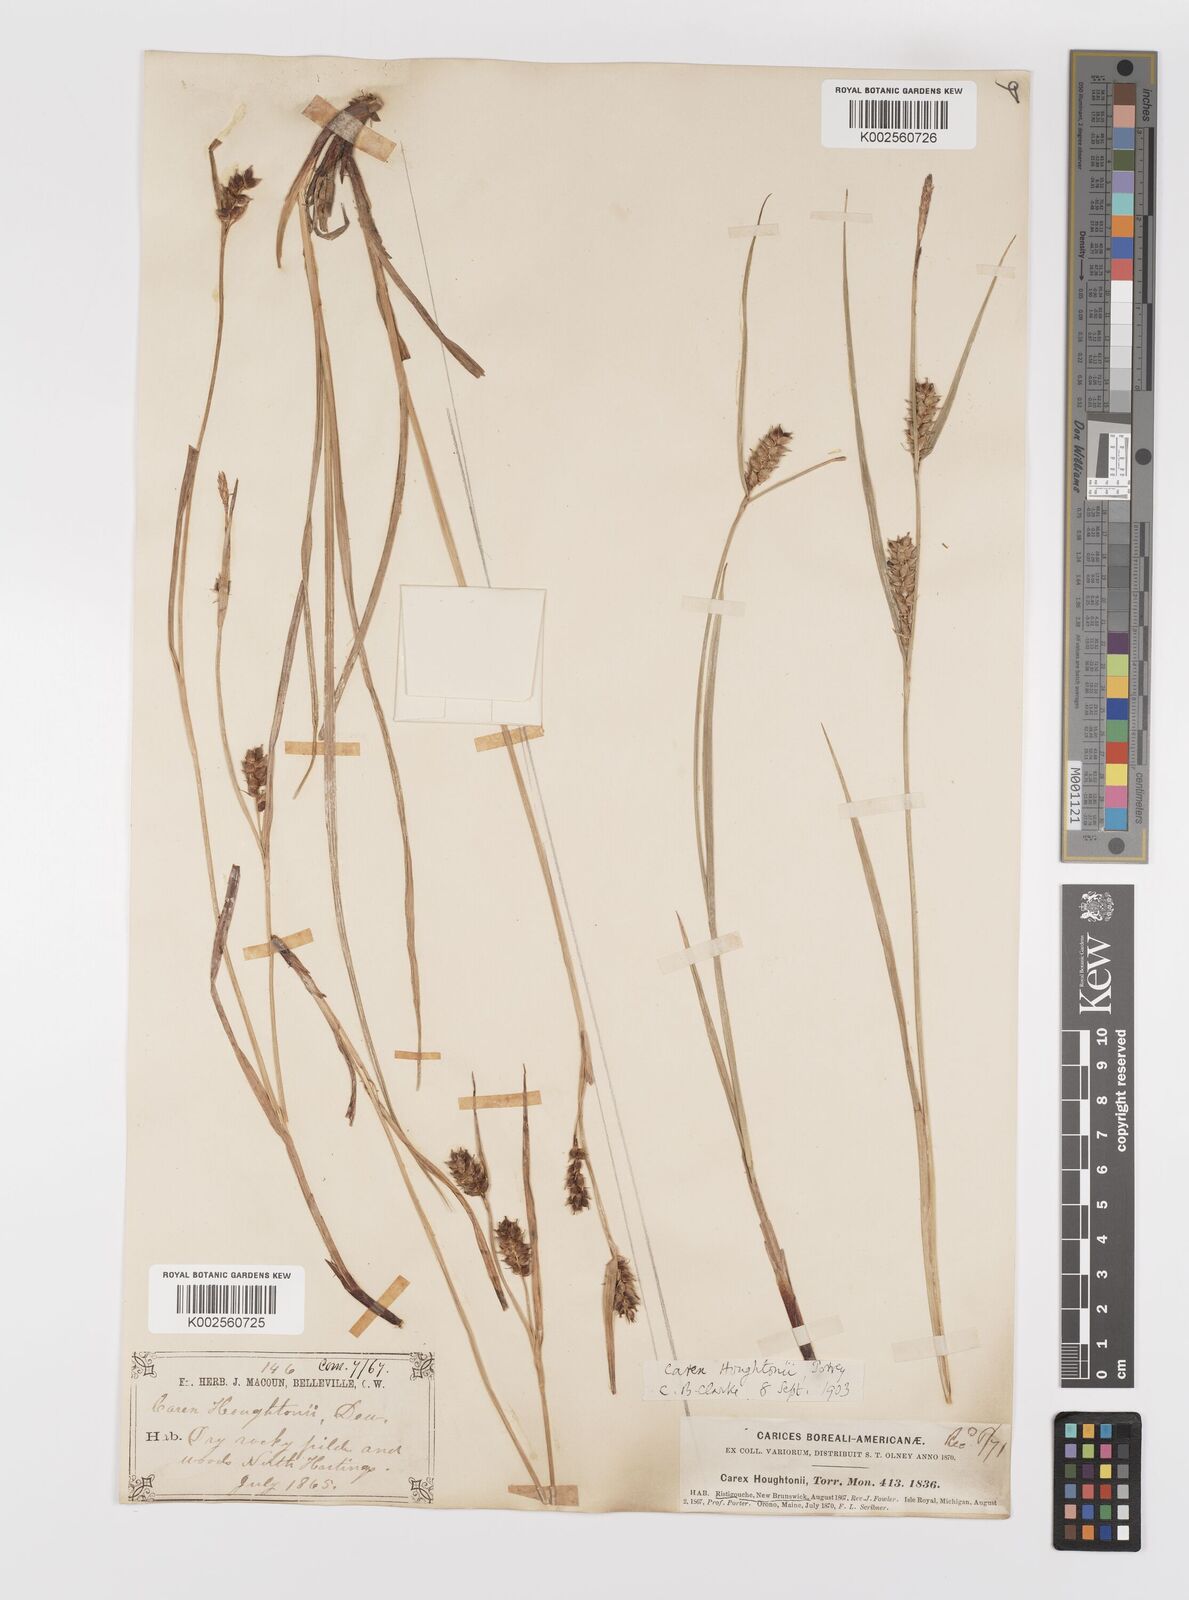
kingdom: Plantae
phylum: Tracheophyta
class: Liliopsida
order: Poales
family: Cyperaceae
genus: Carex
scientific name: Carex houghtoniana
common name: Houghton's sedge
